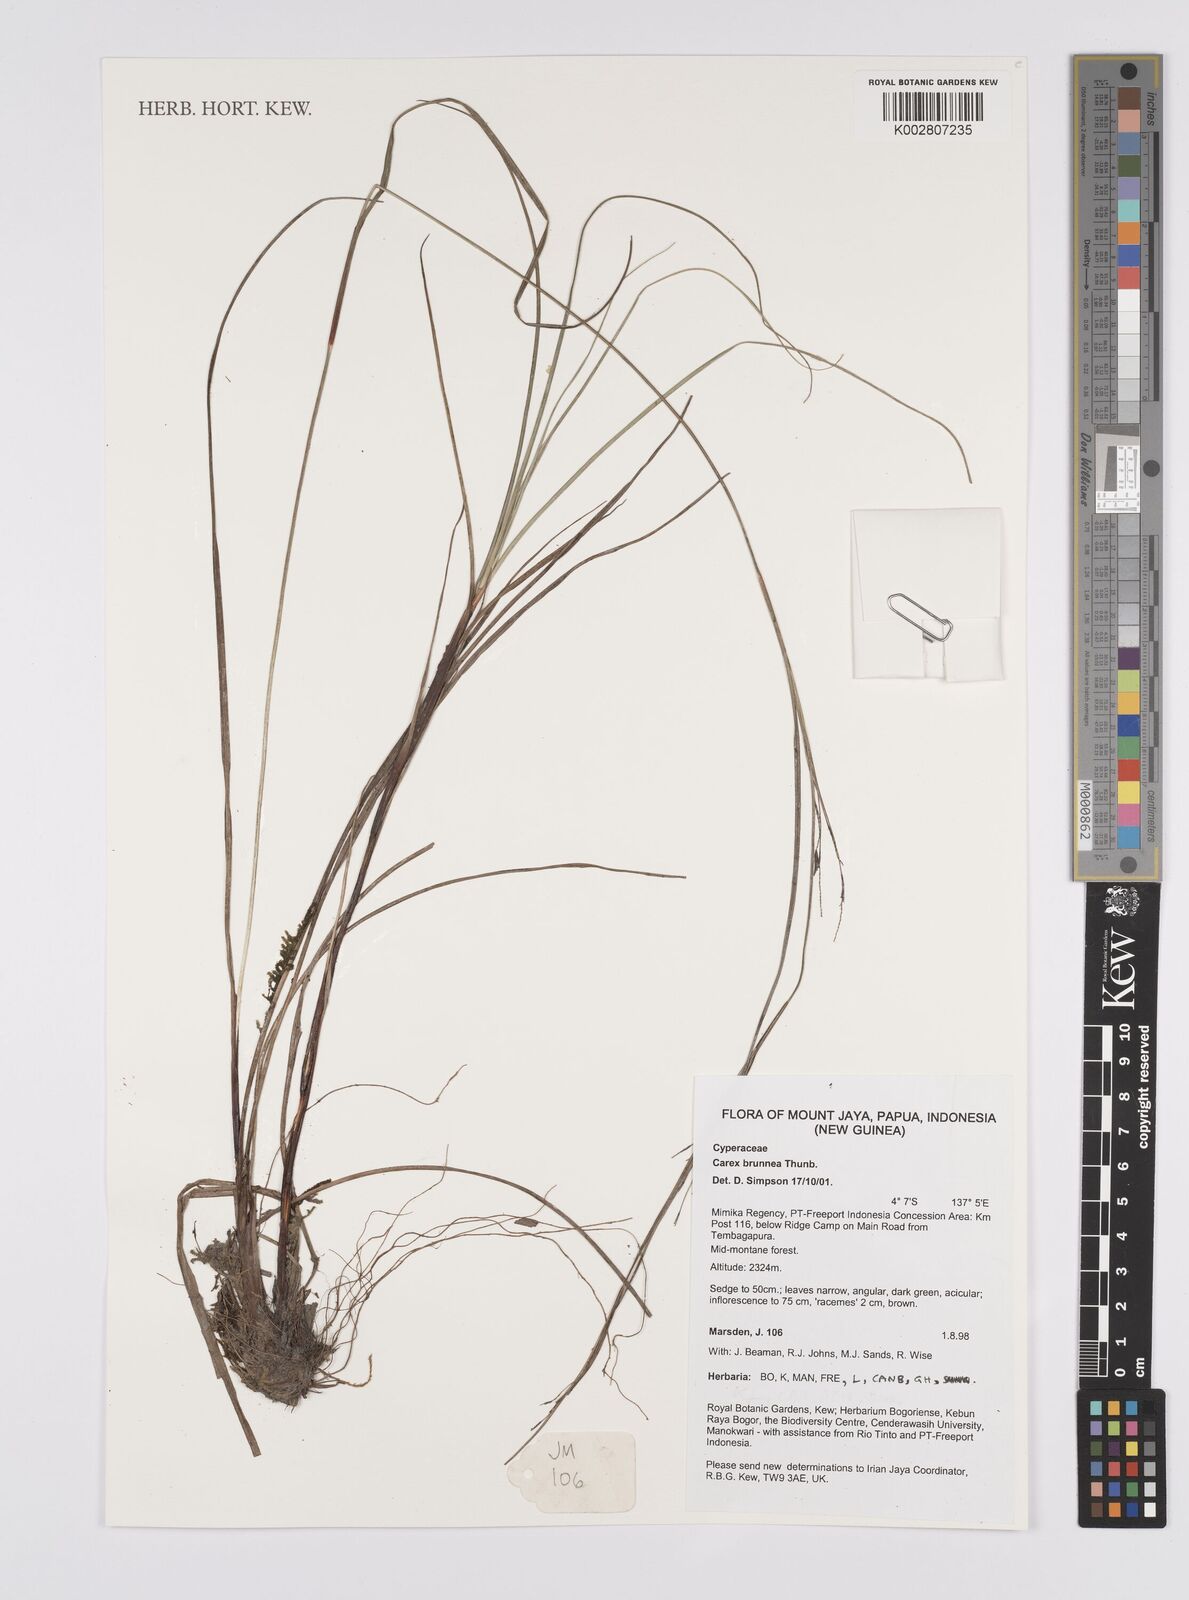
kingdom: Plantae
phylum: Tracheophyta
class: Liliopsida
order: Poales
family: Cyperaceae
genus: Carex
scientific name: Carex brunnea
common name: Greater brown sedge
